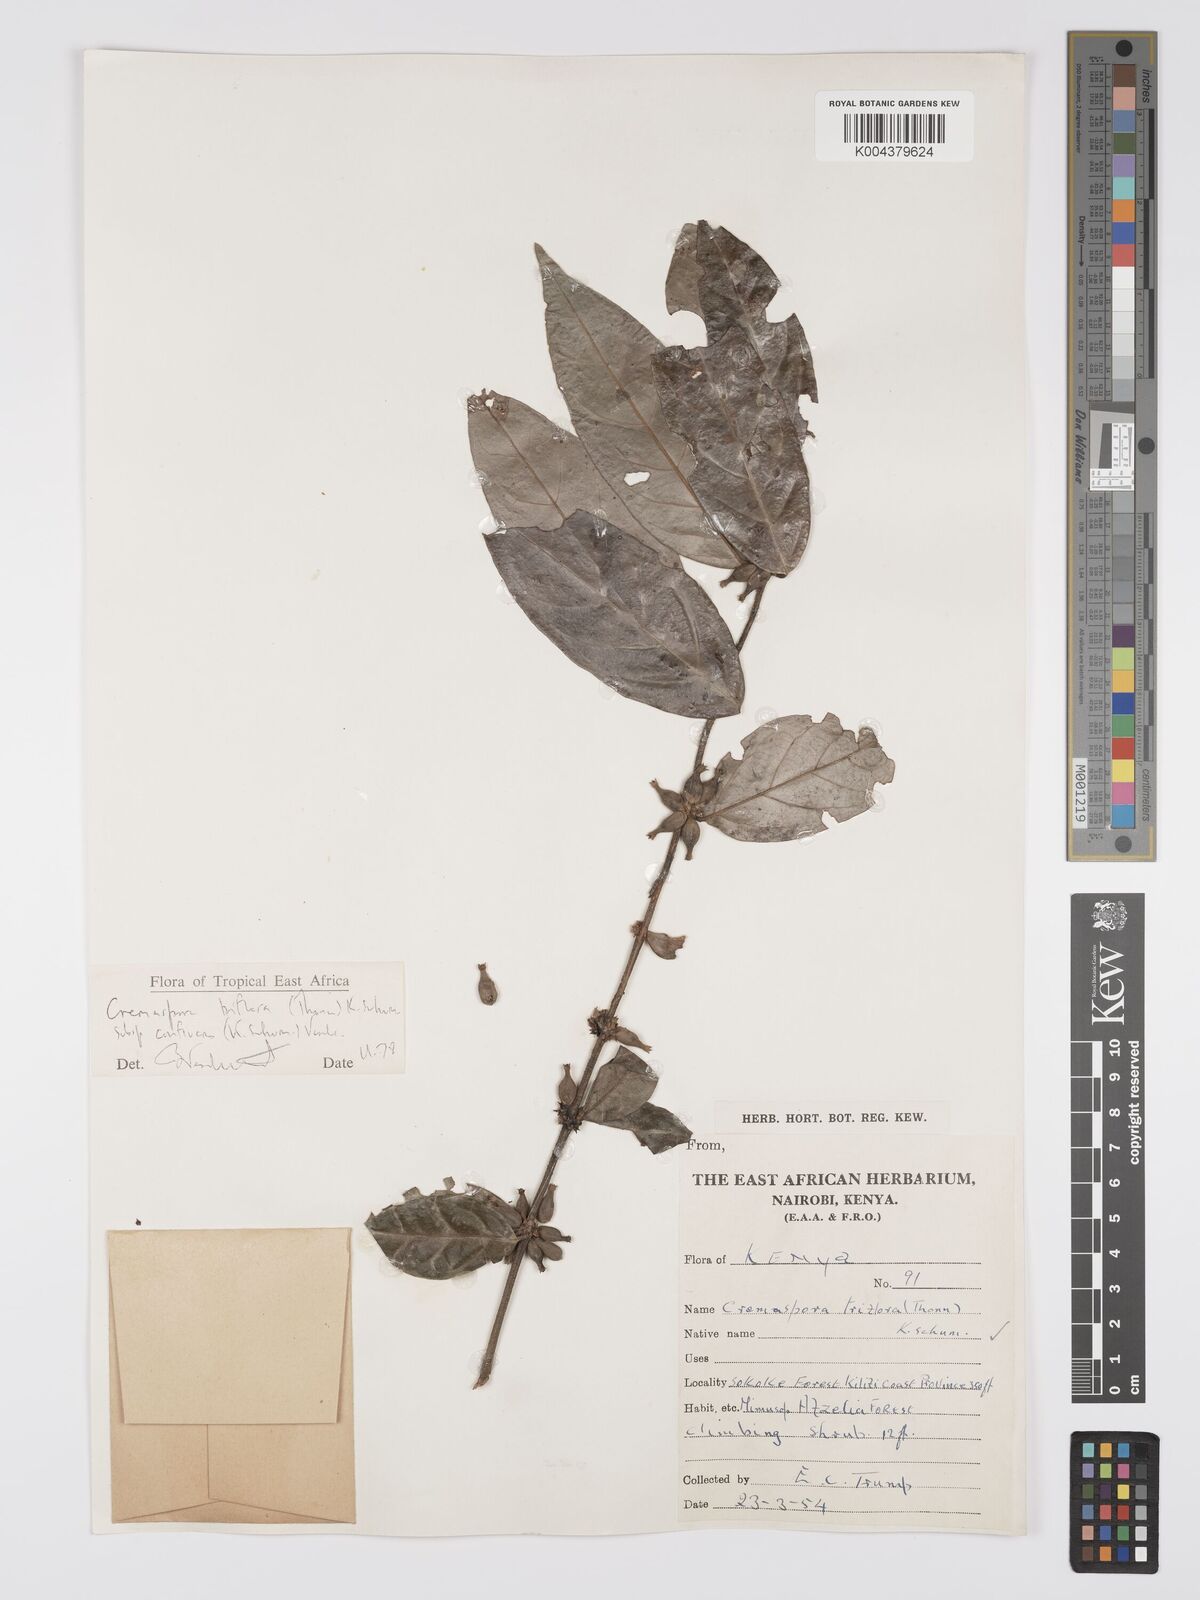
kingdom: Plantae
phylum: Tracheophyta
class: Magnoliopsida
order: Gentianales
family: Rubiaceae
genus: Cremaspora
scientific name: Cremaspora triflora
